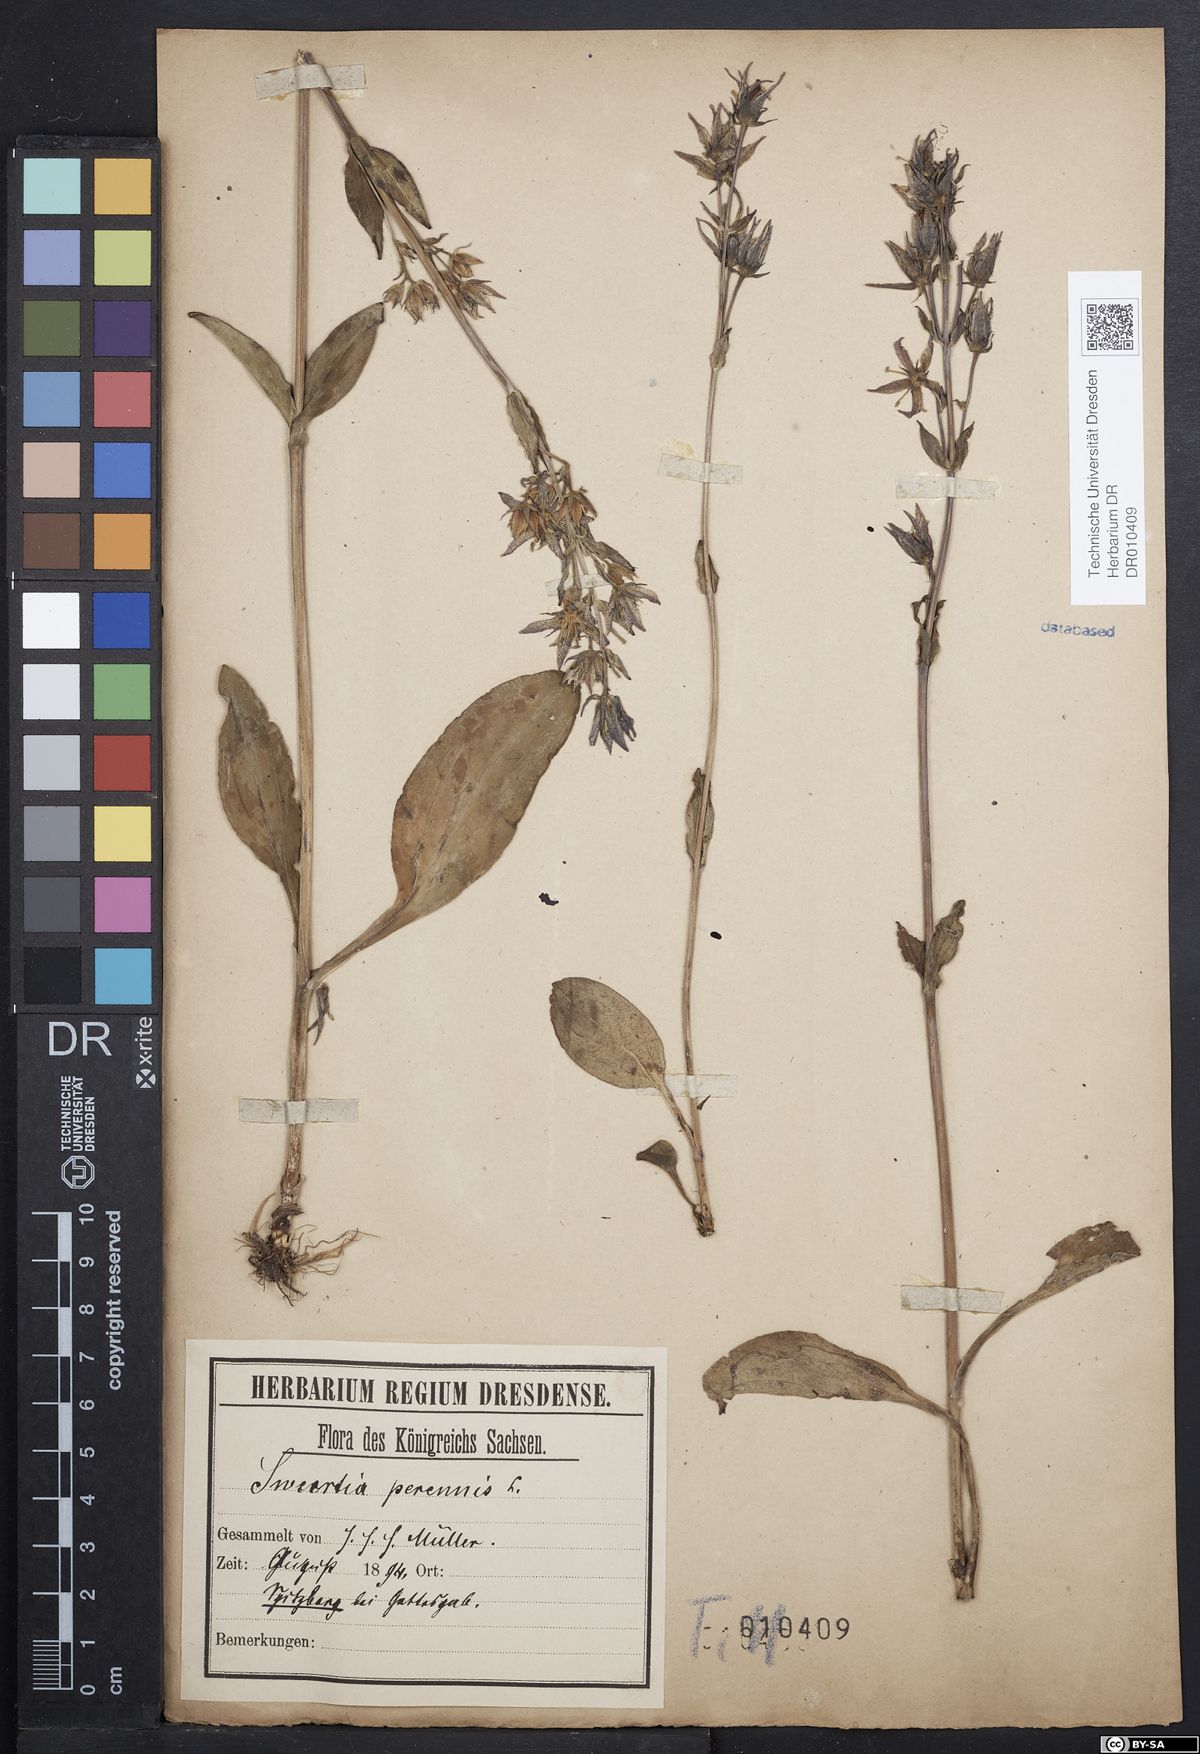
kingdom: Plantae
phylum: Tracheophyta
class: Magnoliopsida
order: Gentianales
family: Gentianaceae
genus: Swertia
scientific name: Swertia perennis
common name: Alpine bog swertia
